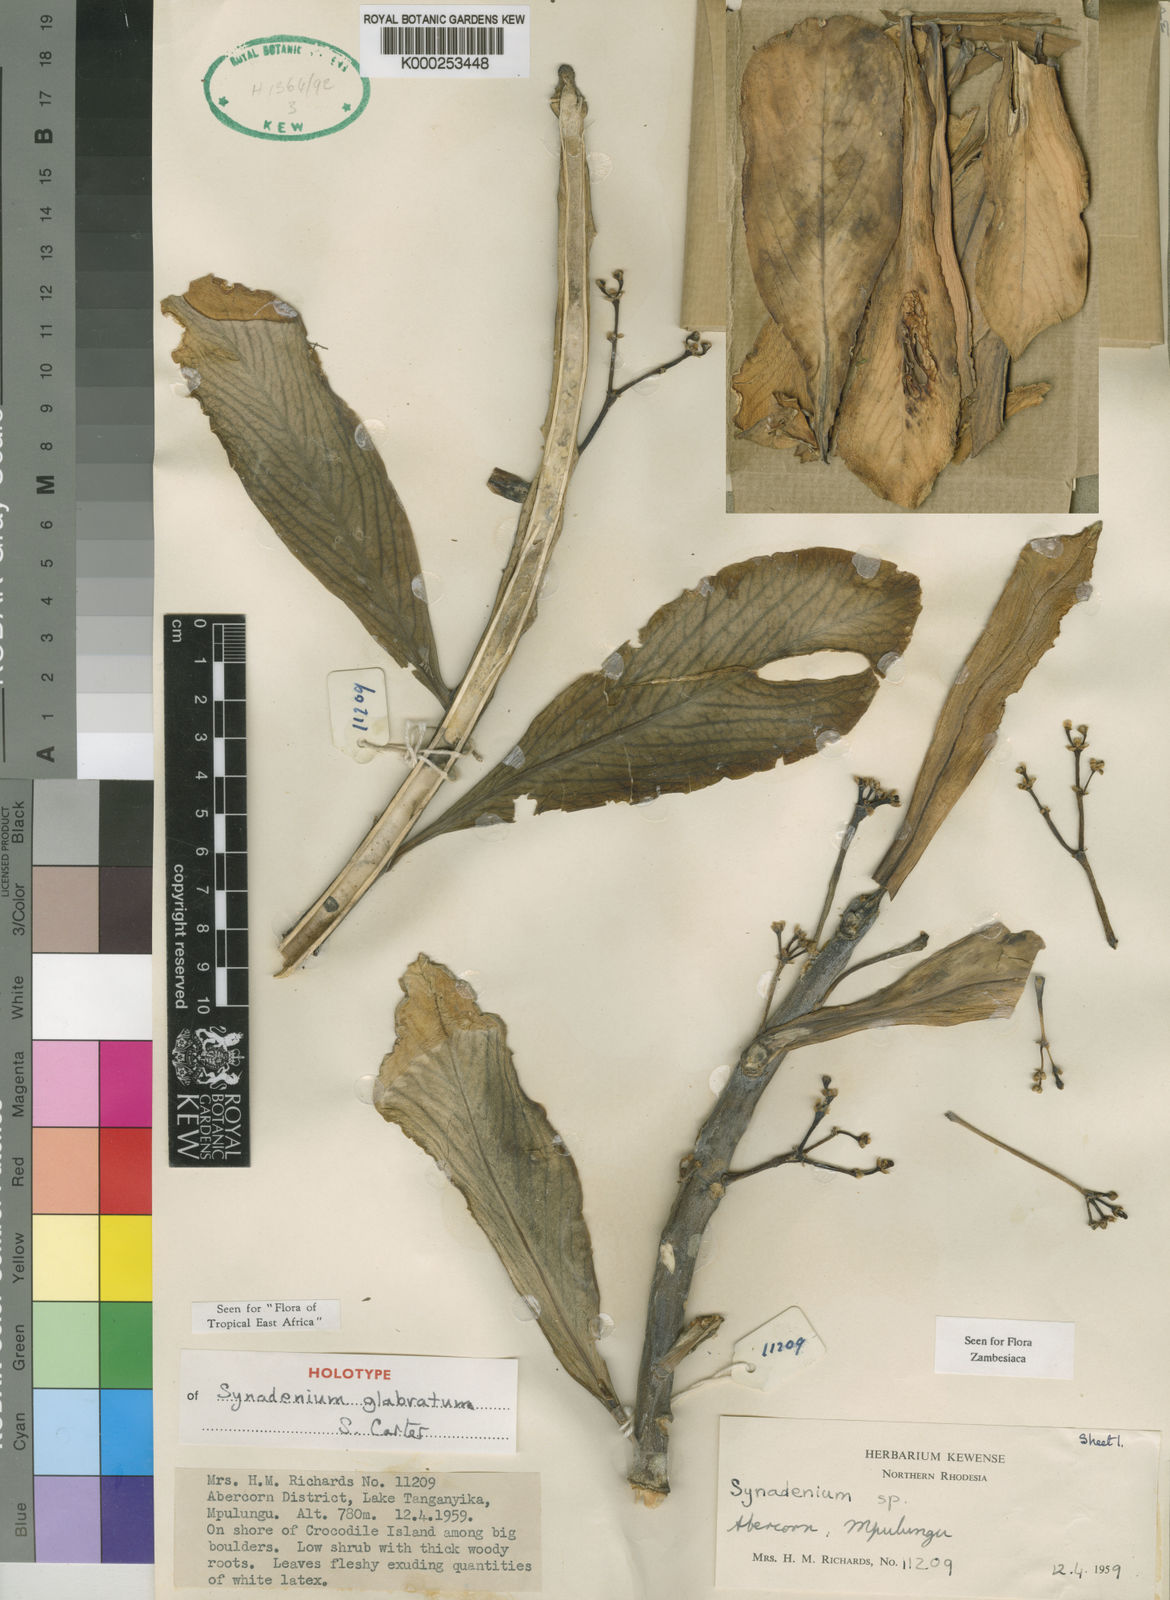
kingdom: Plantae
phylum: Tracheophyta
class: Magnoliopsida
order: Malpighiales
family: Euphorbiaceae
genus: Euphorbia
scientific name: Euphorbia neoglabrata
